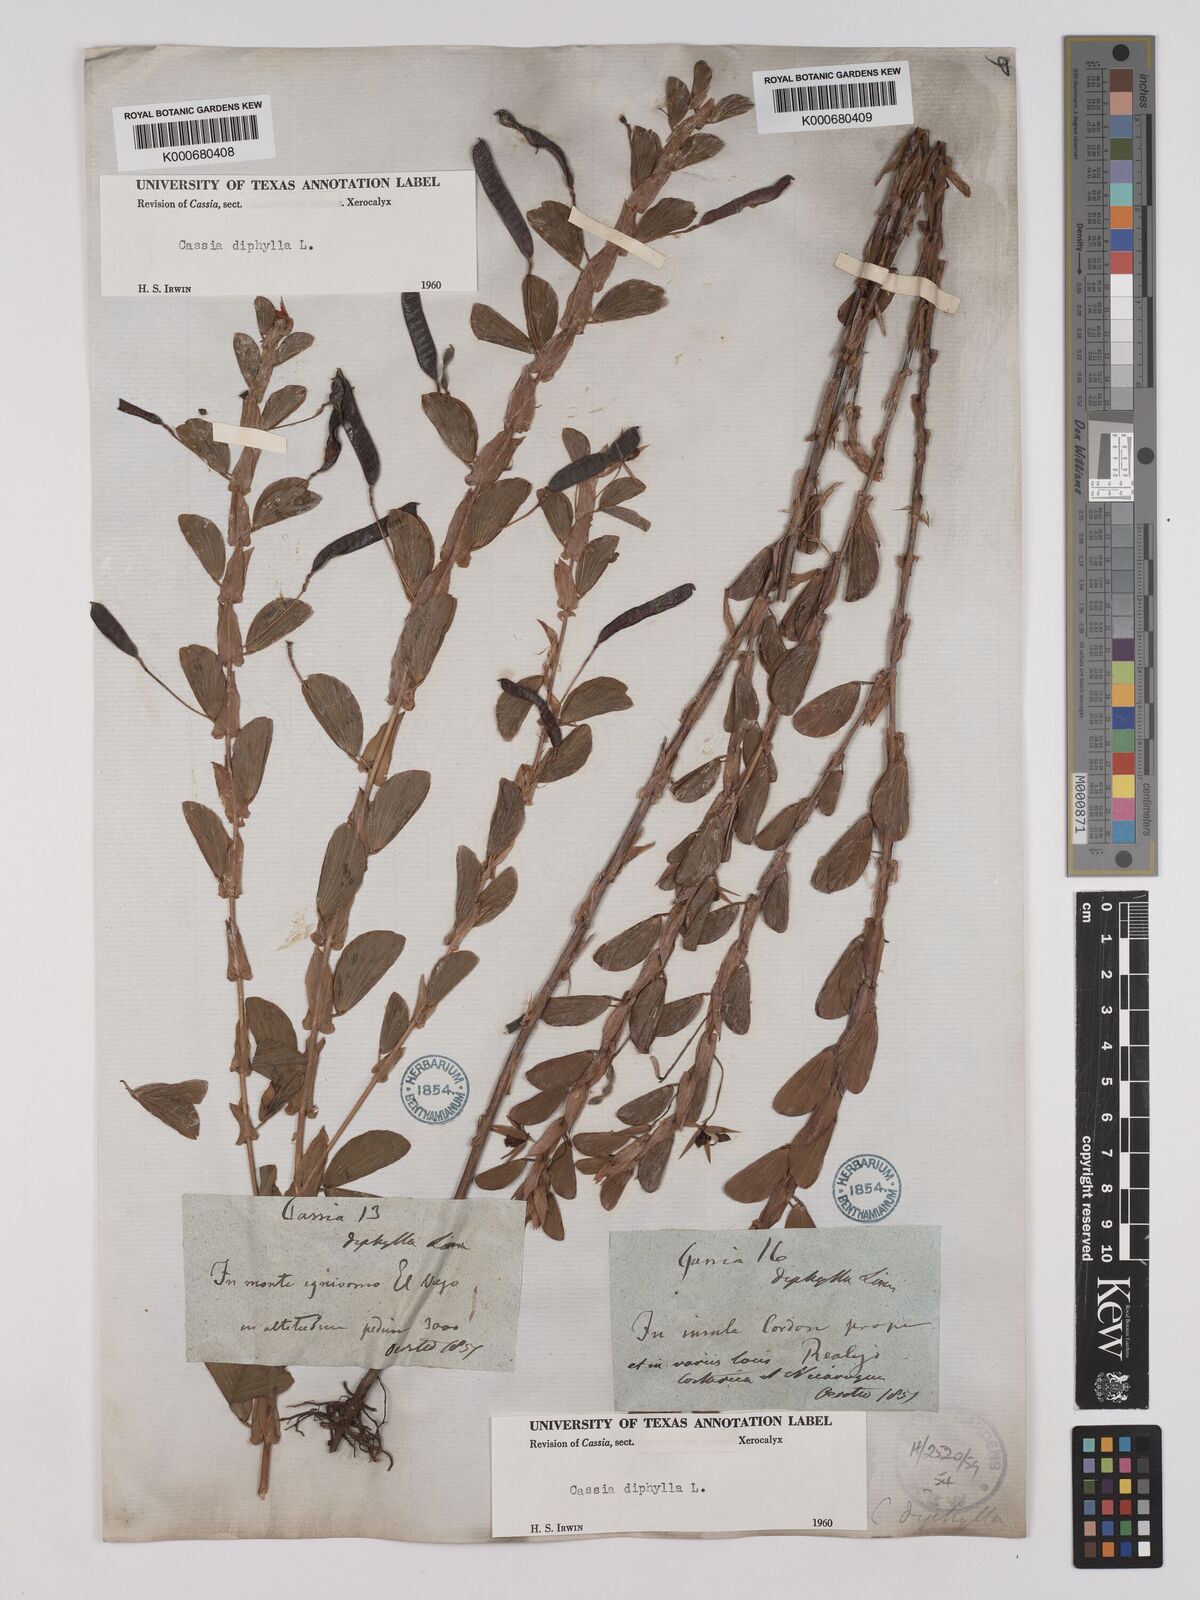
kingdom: Plantae
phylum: Tracheophyta
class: Magnoliopsida
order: Fabales
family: Fabaceae
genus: Chamaecrista
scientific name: Chamaecrista diphylla
